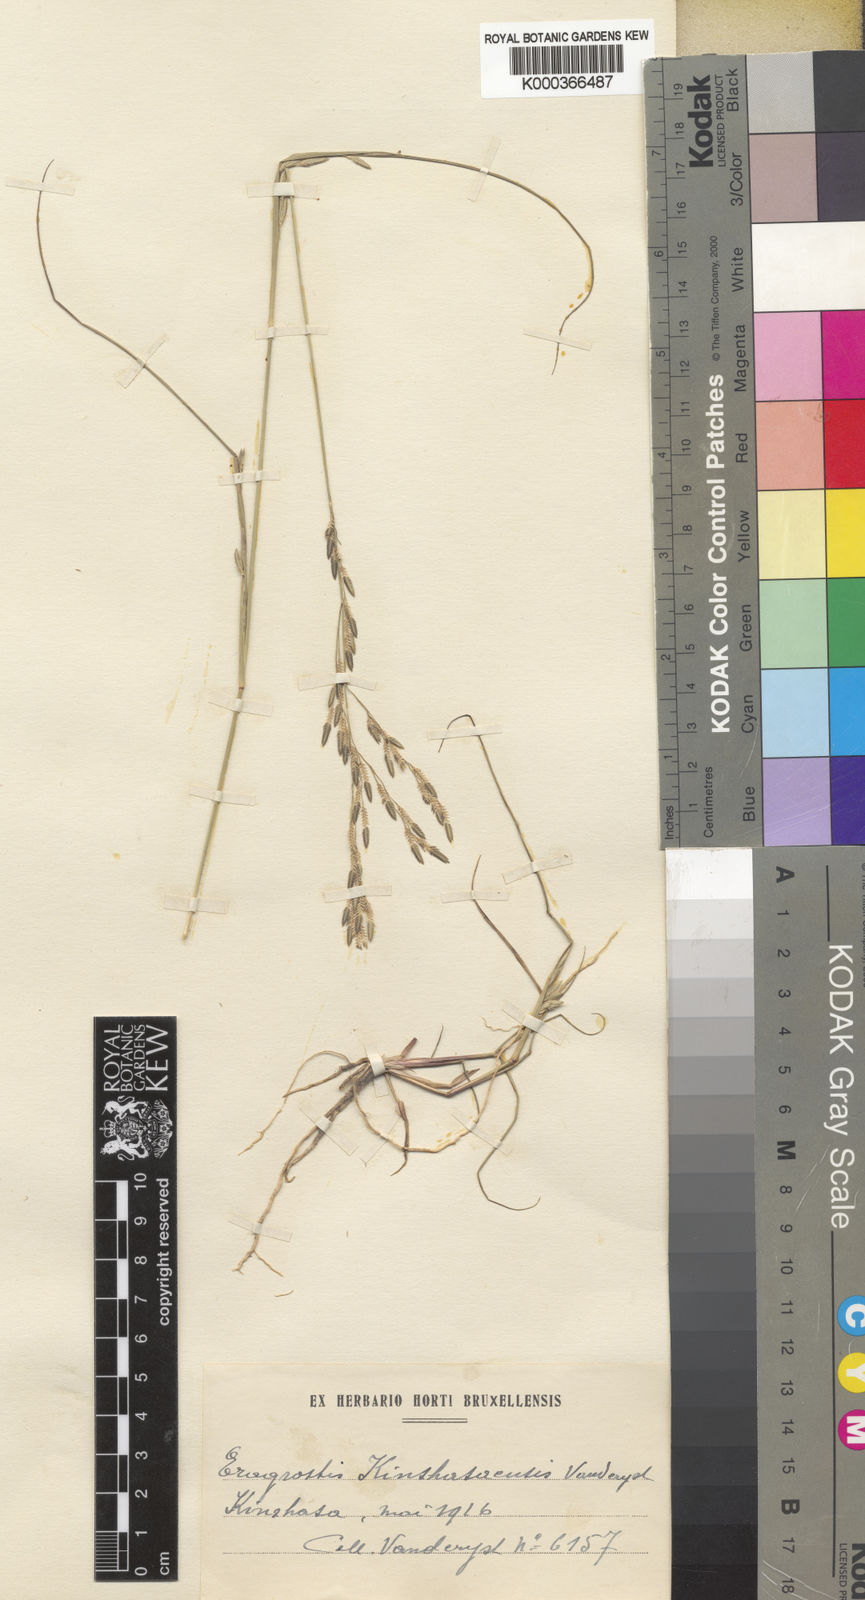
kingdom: Plantae
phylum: Tracheophyta
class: Liliopsida
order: Poales
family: Poaceae
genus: Eragrostis
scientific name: Eragrostis squamata
